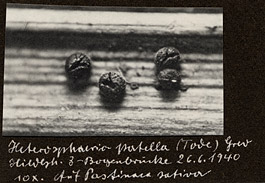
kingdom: Fungi
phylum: Ascomycota
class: Leotiomycetes
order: Helotiales
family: Heterosphaeriaceae
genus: Heterosphaeria
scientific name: Heterosphaeria patella
